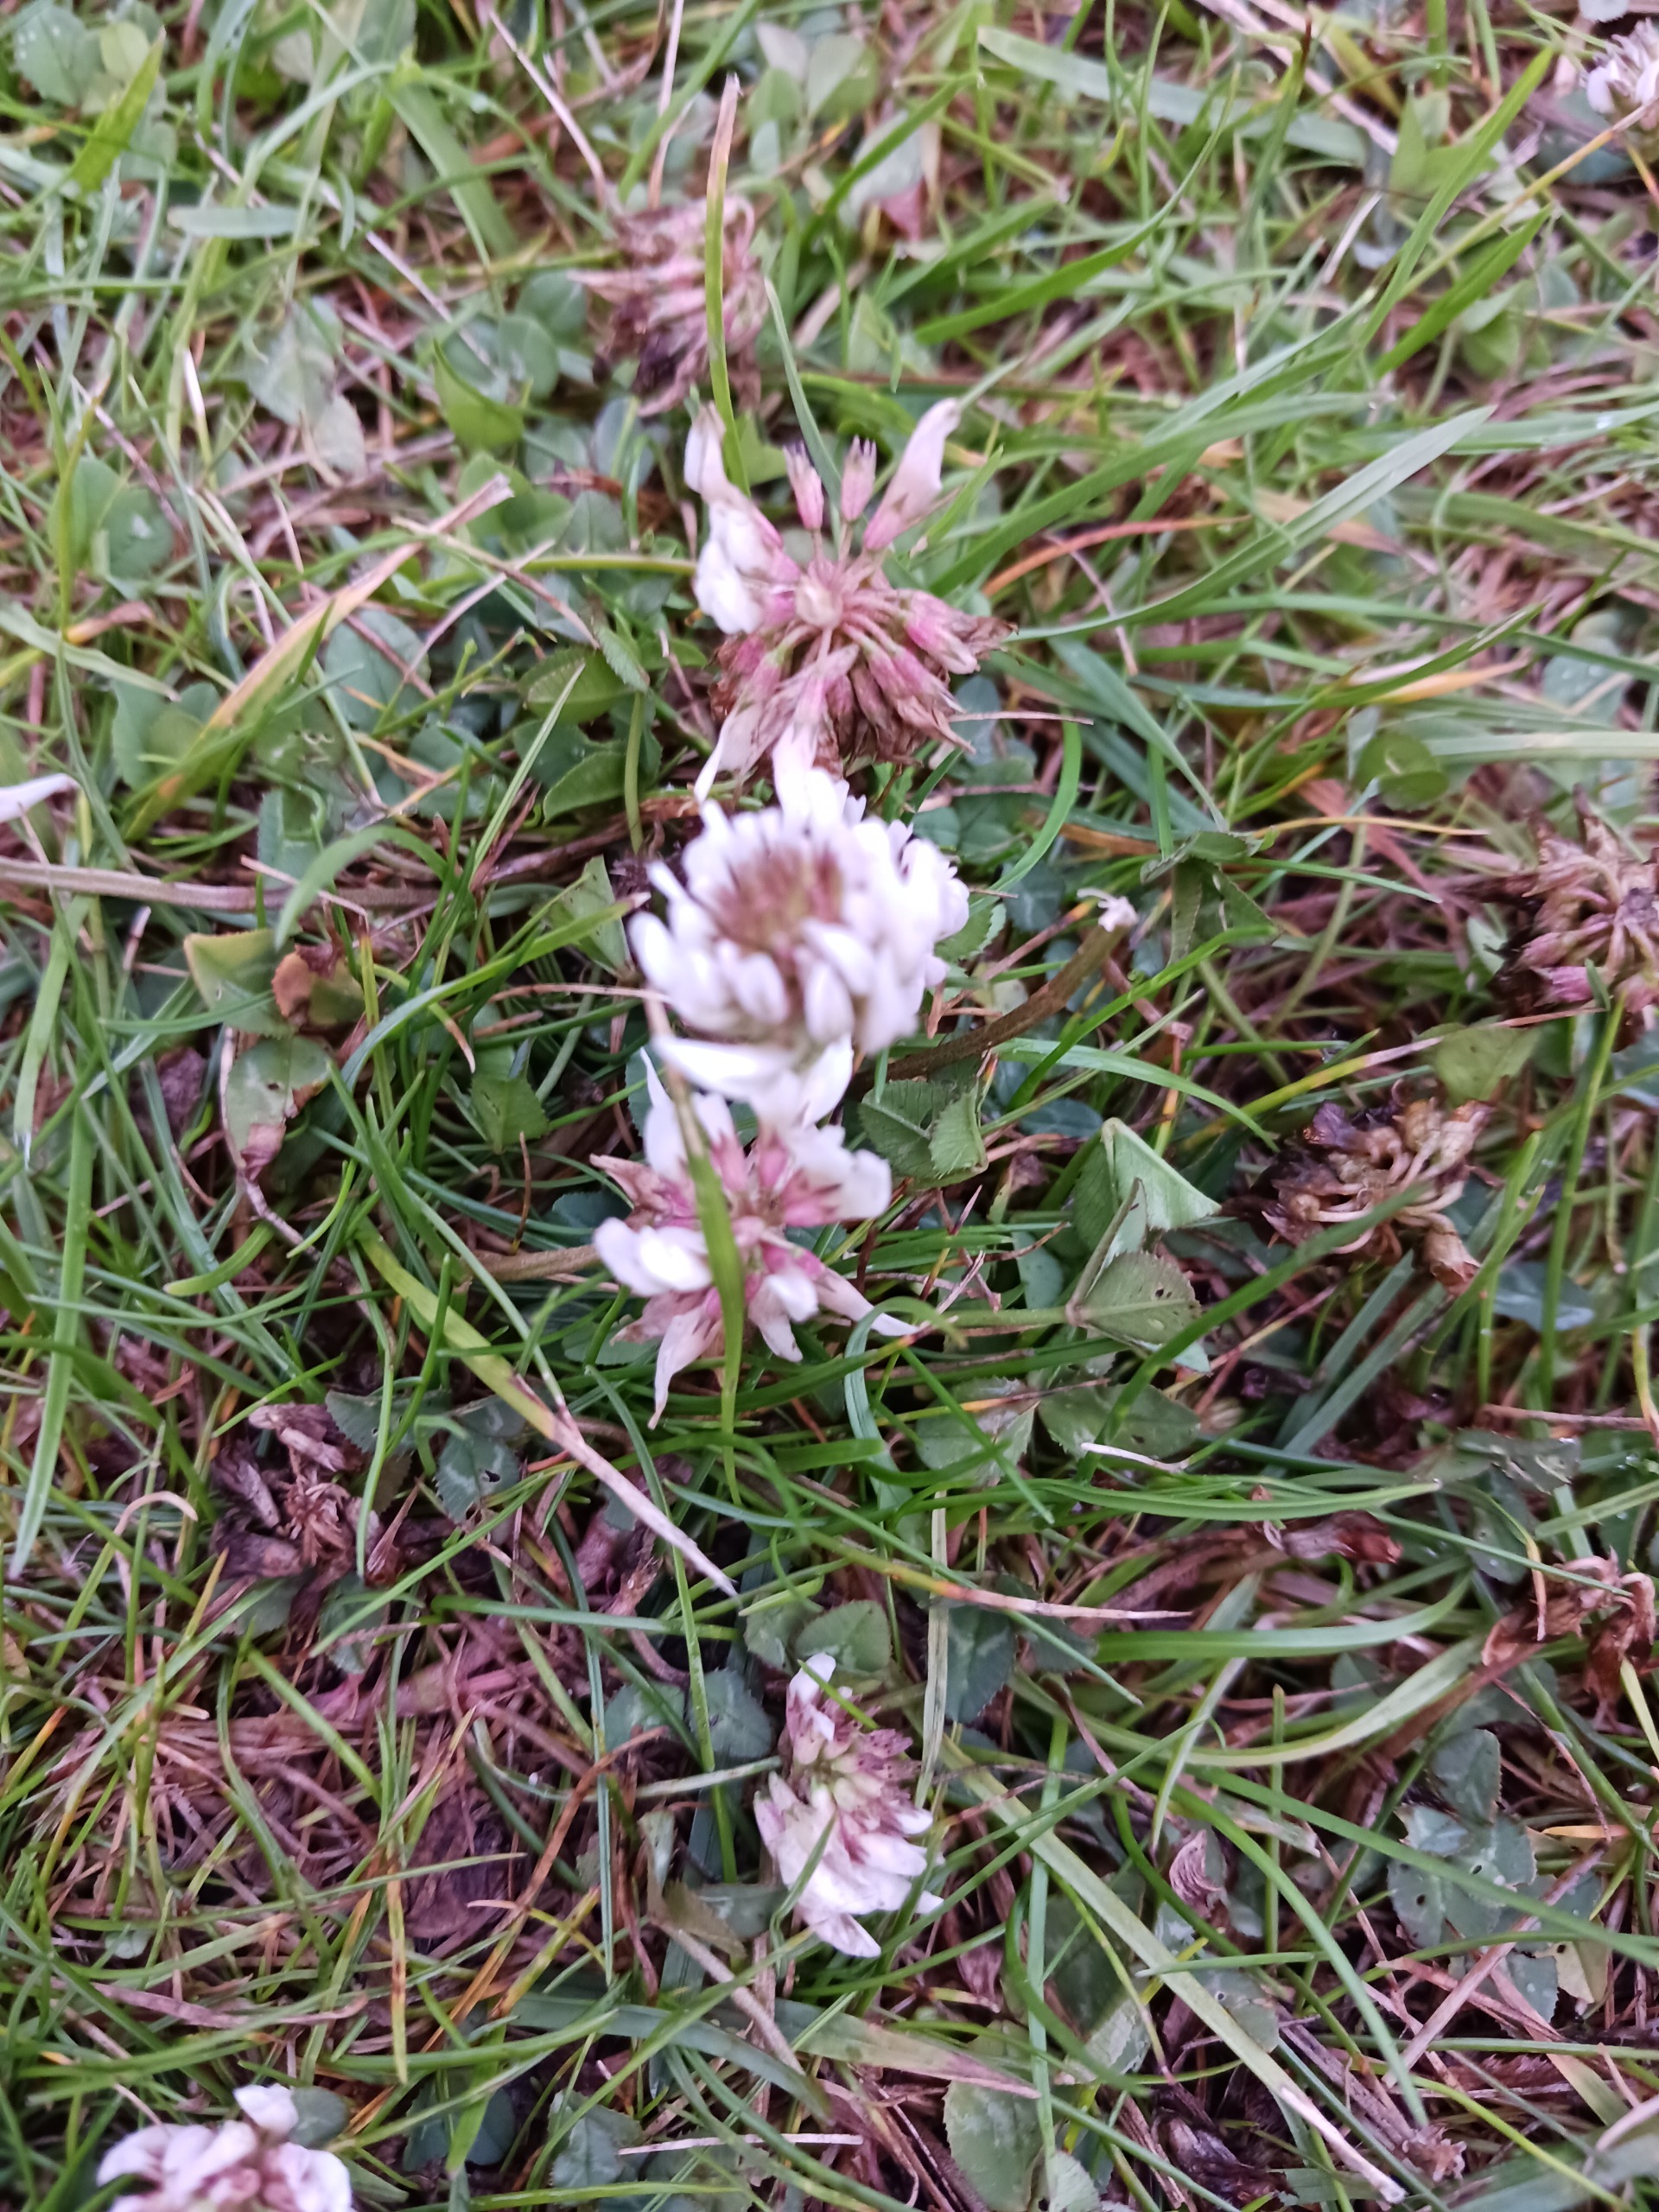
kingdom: Plantae
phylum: Tracheophyta
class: Magnoliopsida
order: Fabales
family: Fabaceae
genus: Trifolium
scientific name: Trifolium repens
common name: Hvid-kløver
